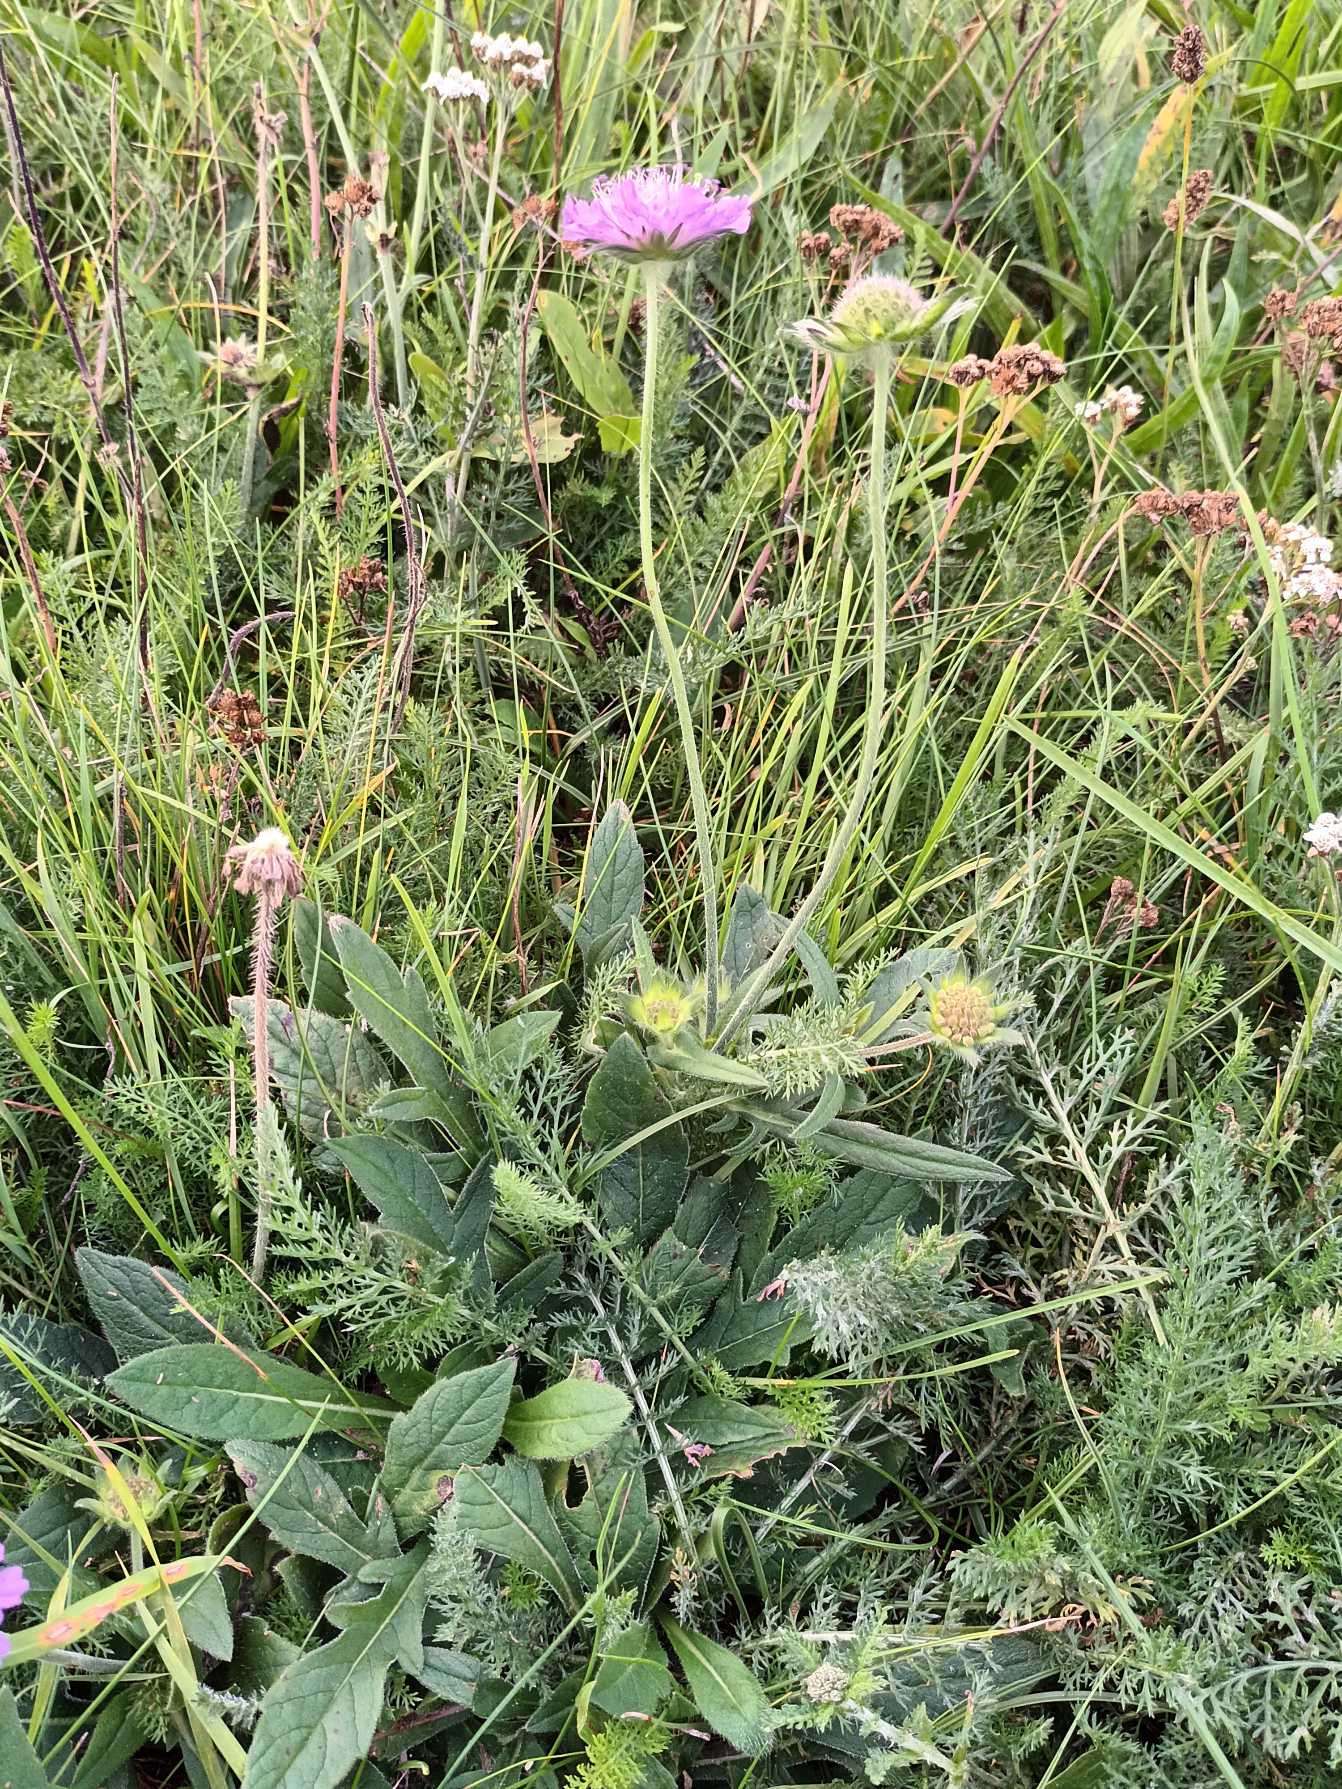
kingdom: Plantae
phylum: Tracheophyta
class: Magnoliopsida
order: Dipsacales
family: Caprifoliaceae
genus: Knautia
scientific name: Knautia arvensis
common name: Blåhat
